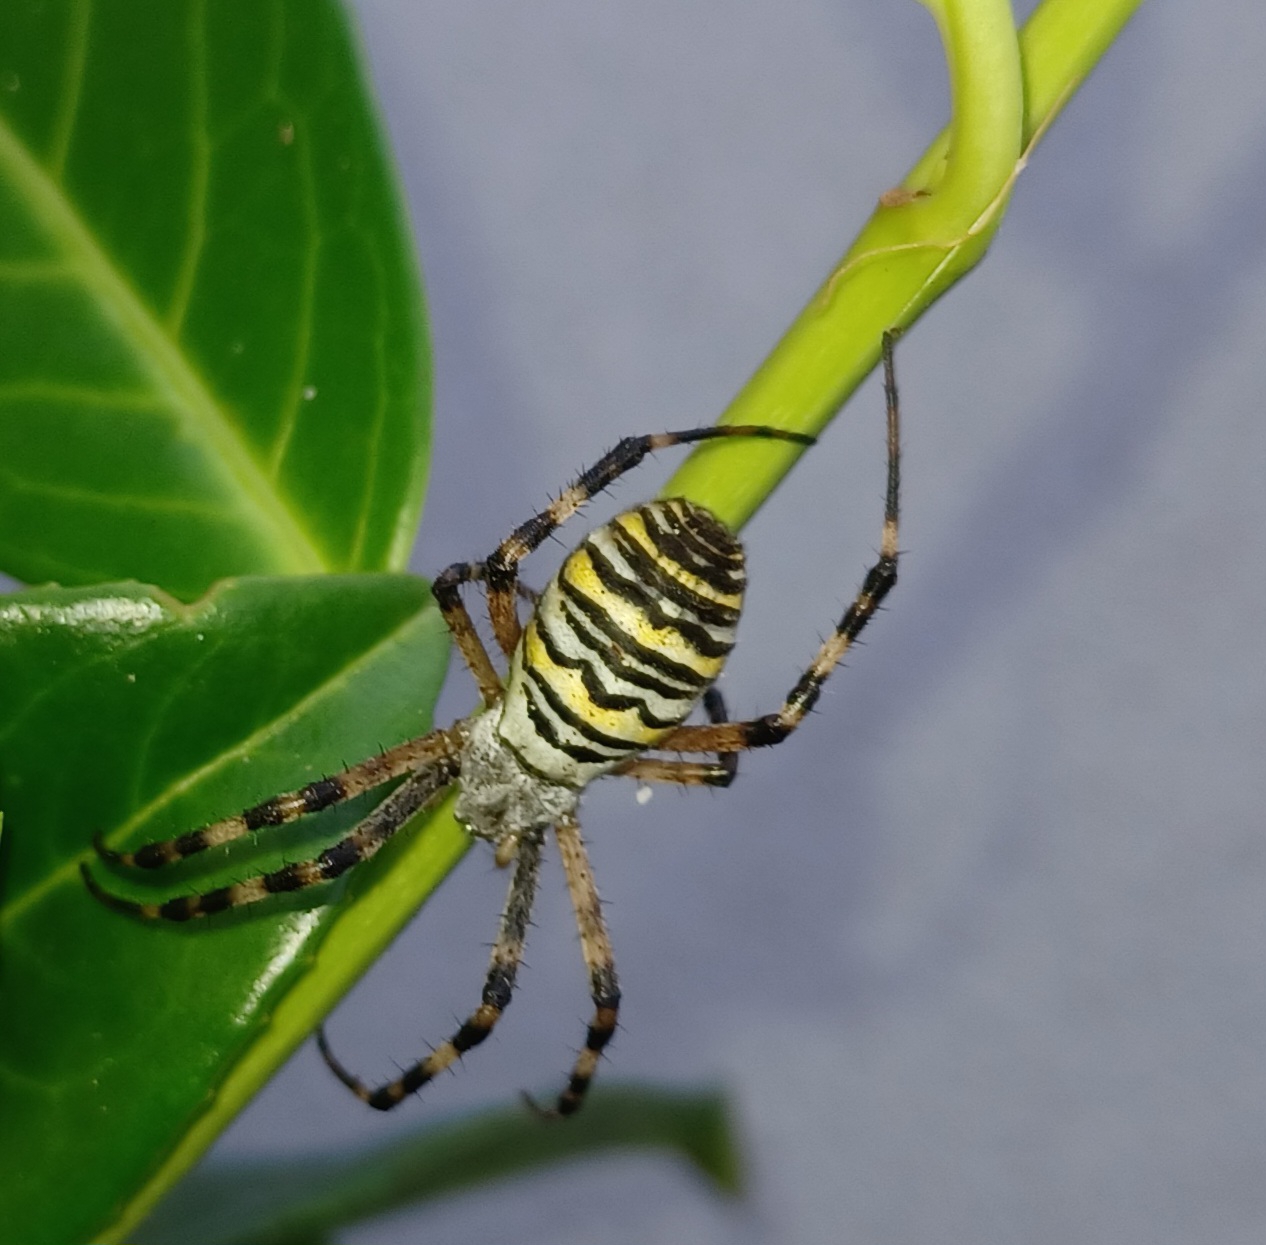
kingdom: Animalia
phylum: Arthropoda
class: Arachnida
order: Araneae
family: Araneidae
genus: Argiope
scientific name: Argiope bruennichi
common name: Hvepseedderkop
